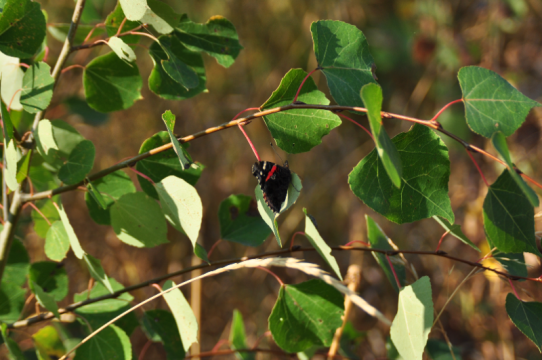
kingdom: Animalia
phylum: Arthropoda
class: Insecta
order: Lepidoptera
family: Nymphalidae
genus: Vanessa
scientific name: Vanessa atalanta
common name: Red Admiral
